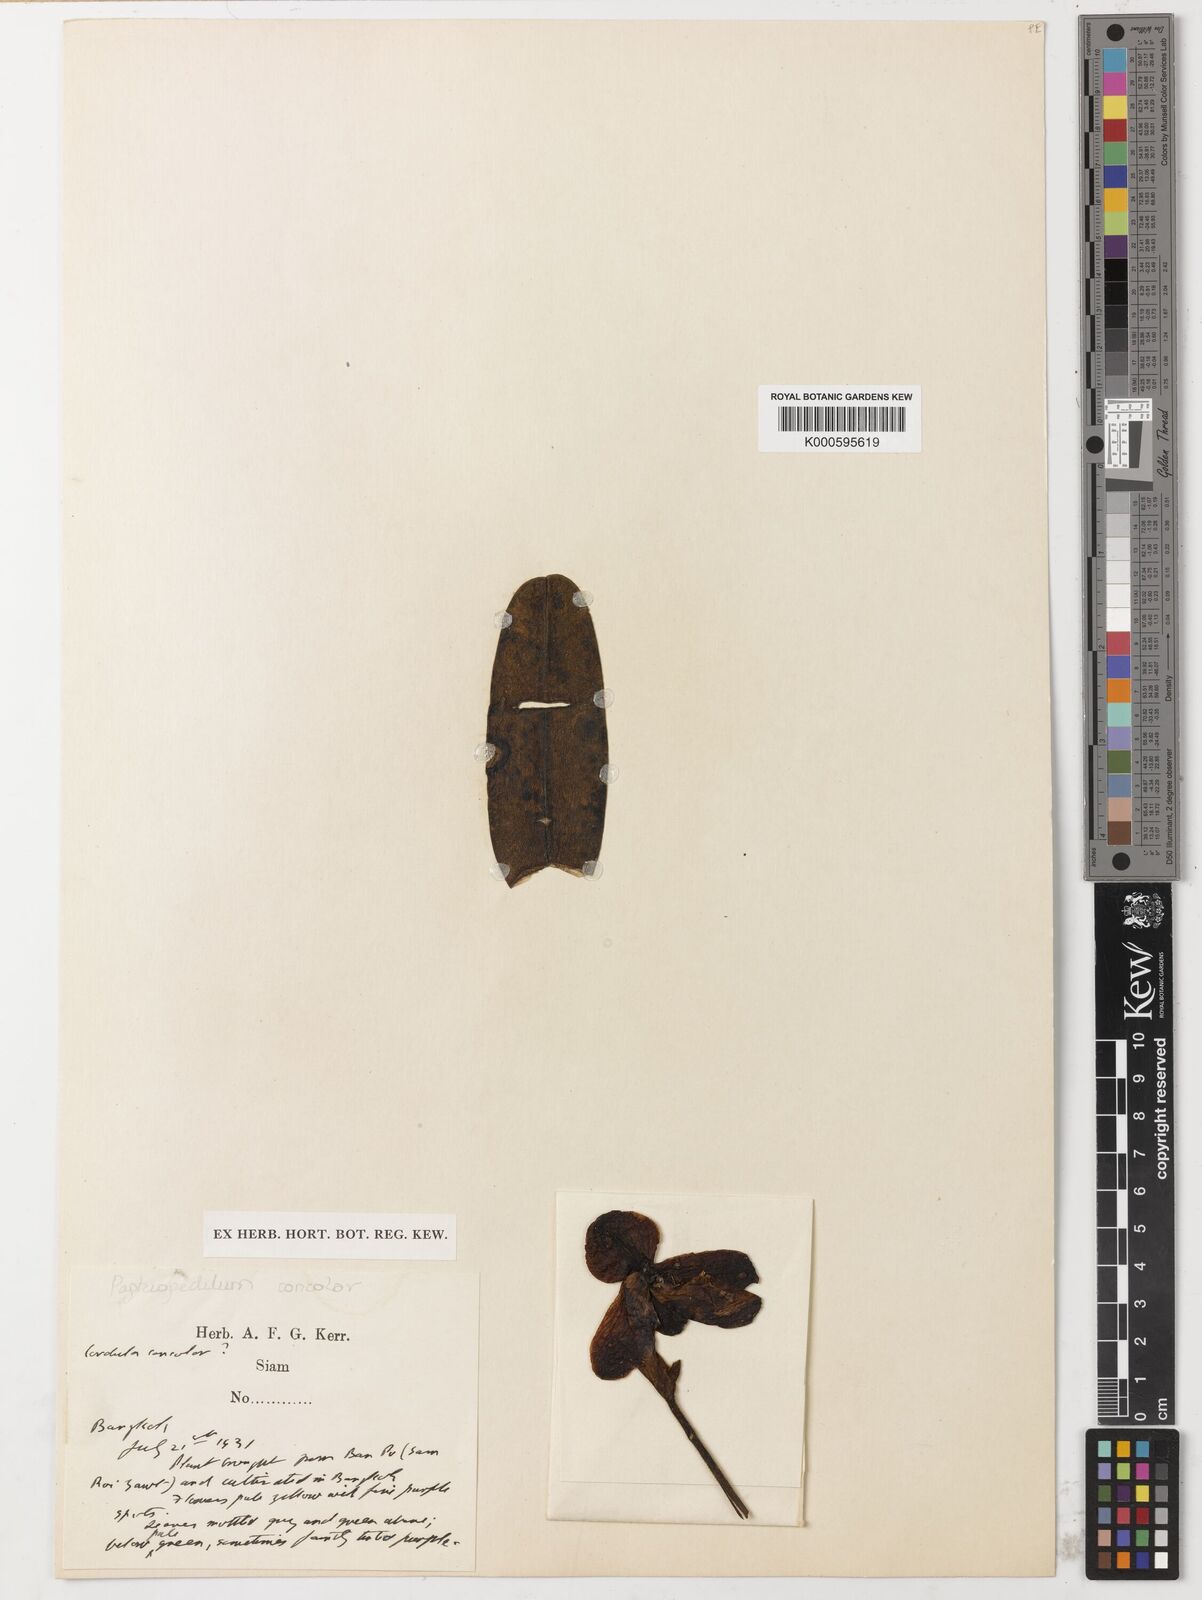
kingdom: Plantae
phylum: Tracheophyta
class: Liliopsida
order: Asparagales
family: Orchidaceae
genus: Paphiopedilum
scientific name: Paphiopedilum concolor
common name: One colored paphiopedilum
